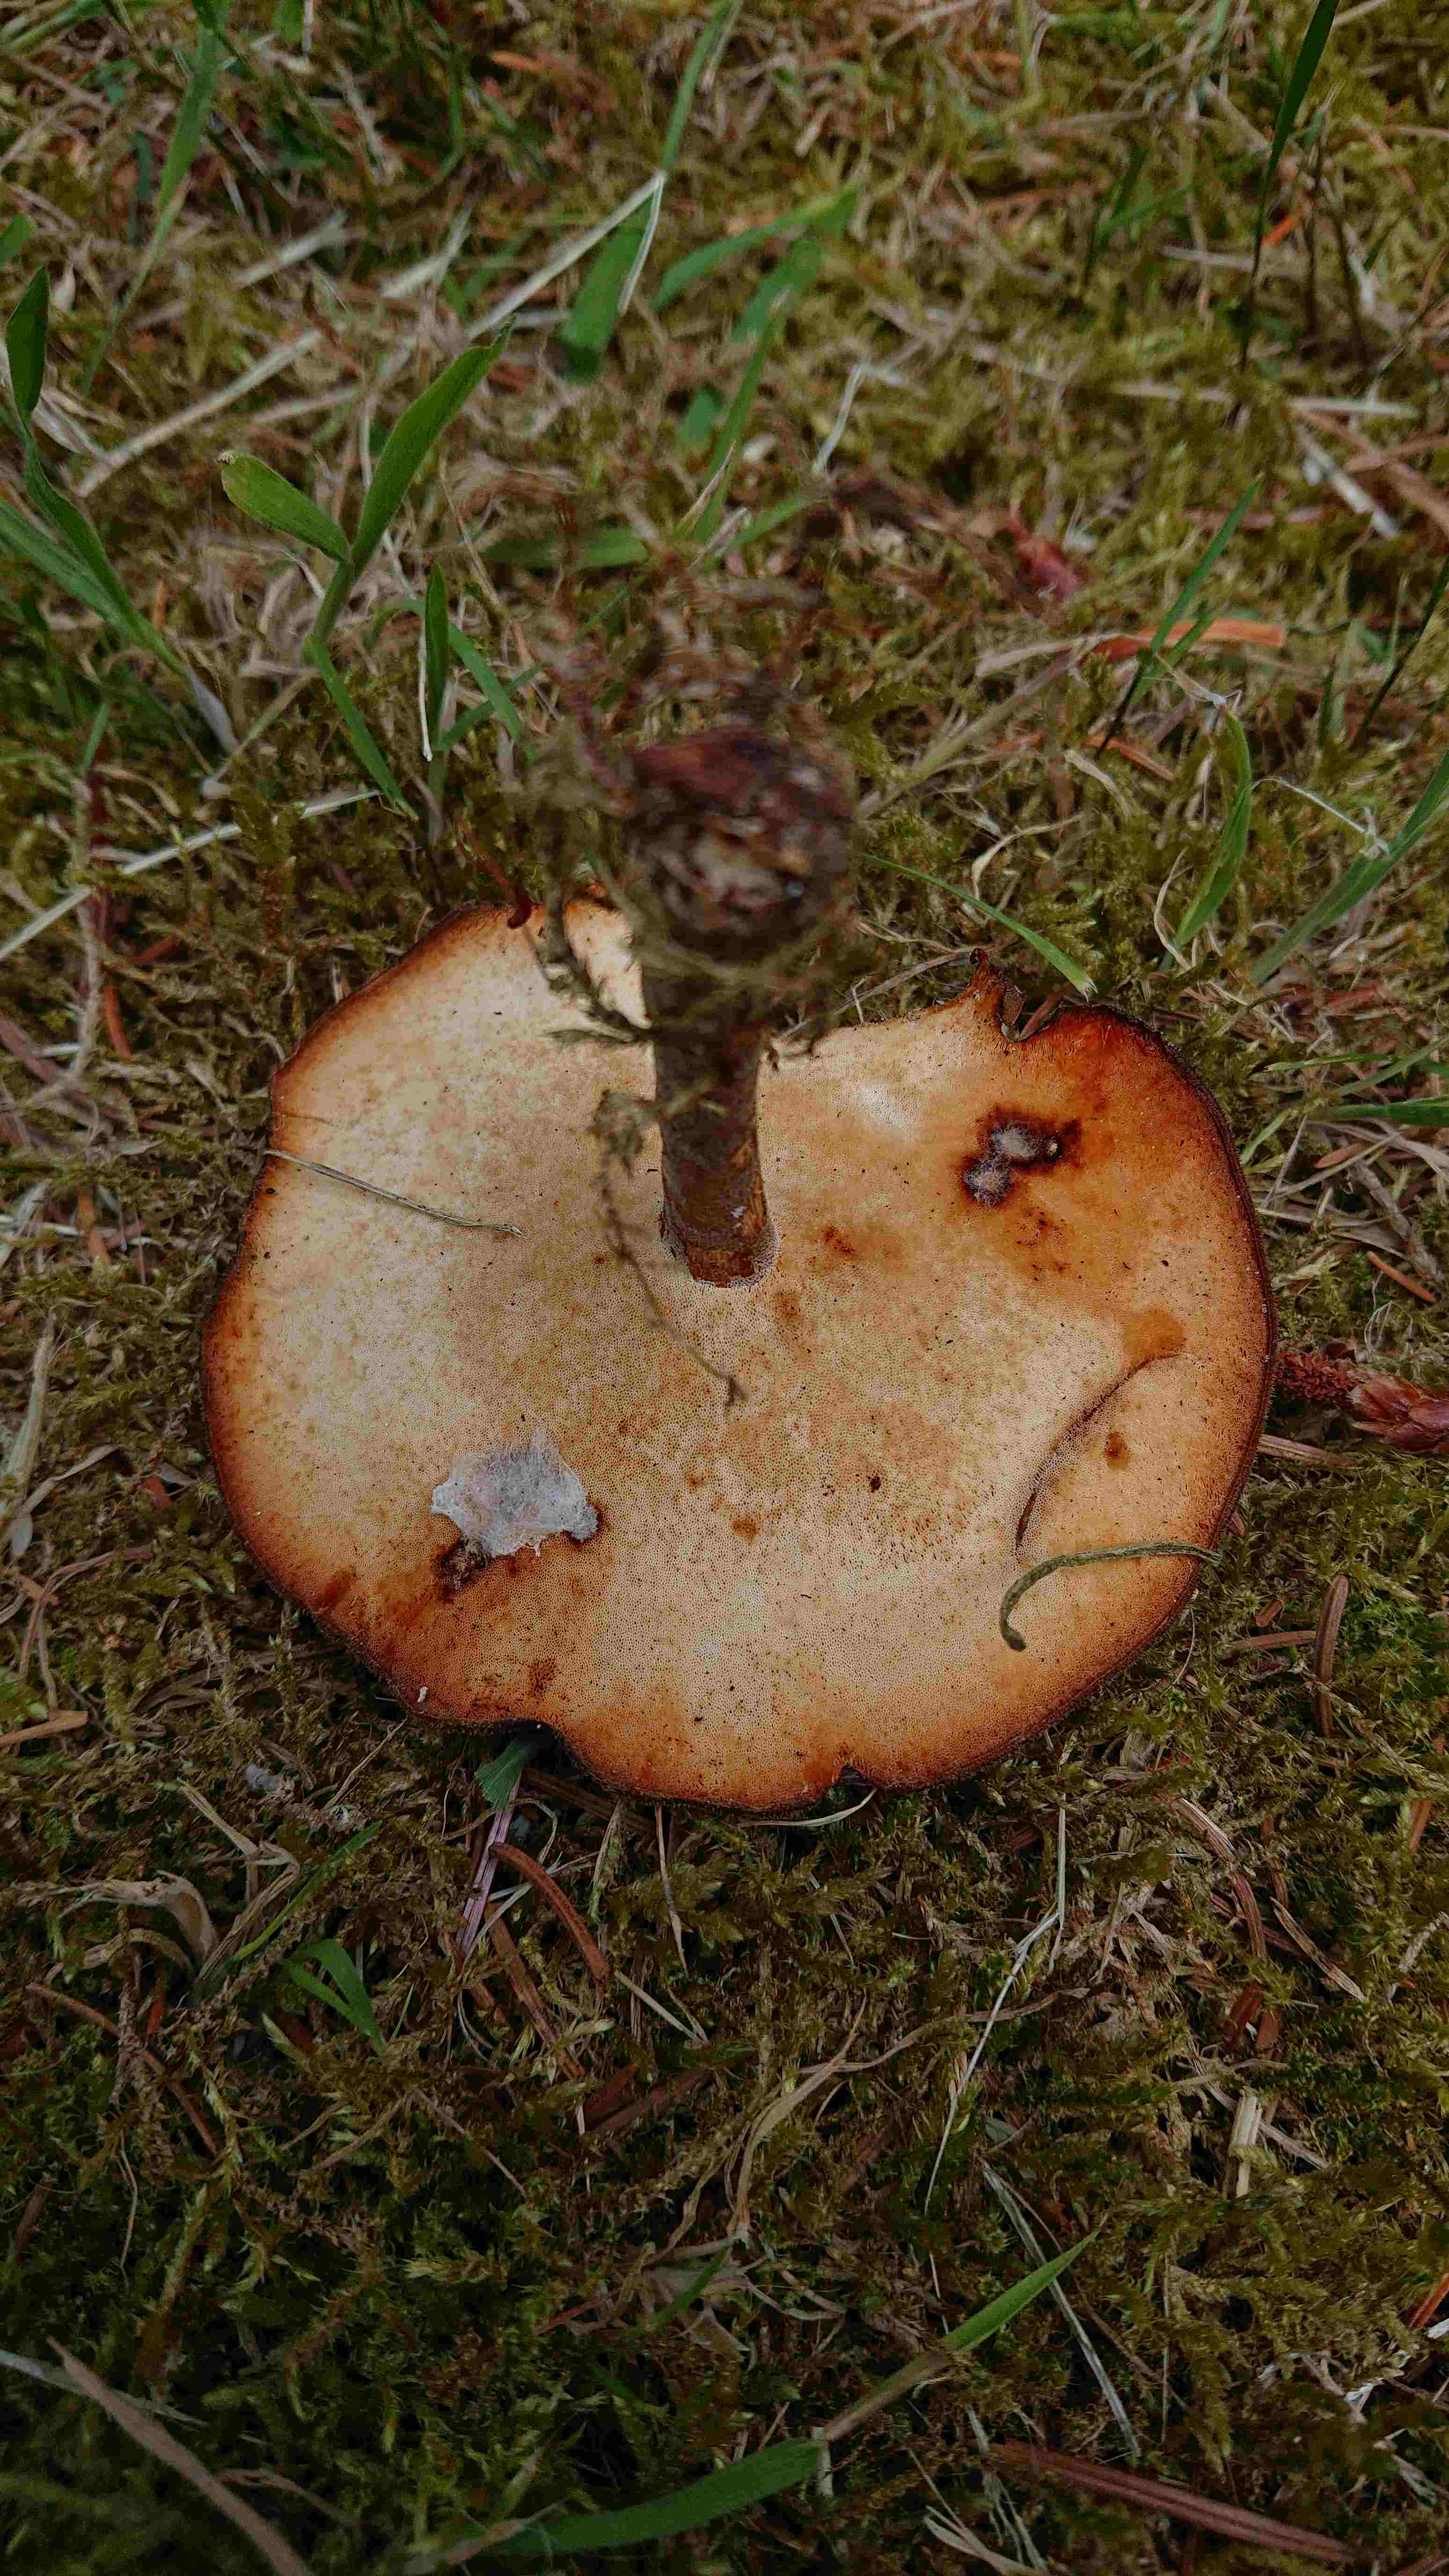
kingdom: Fungi
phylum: Basidiomycota
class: Agaricomycetes
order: Polyporales
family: Polyporaceae
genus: Lentinus
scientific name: Lentinus substrictus
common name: forårs-stilkporesvamp
